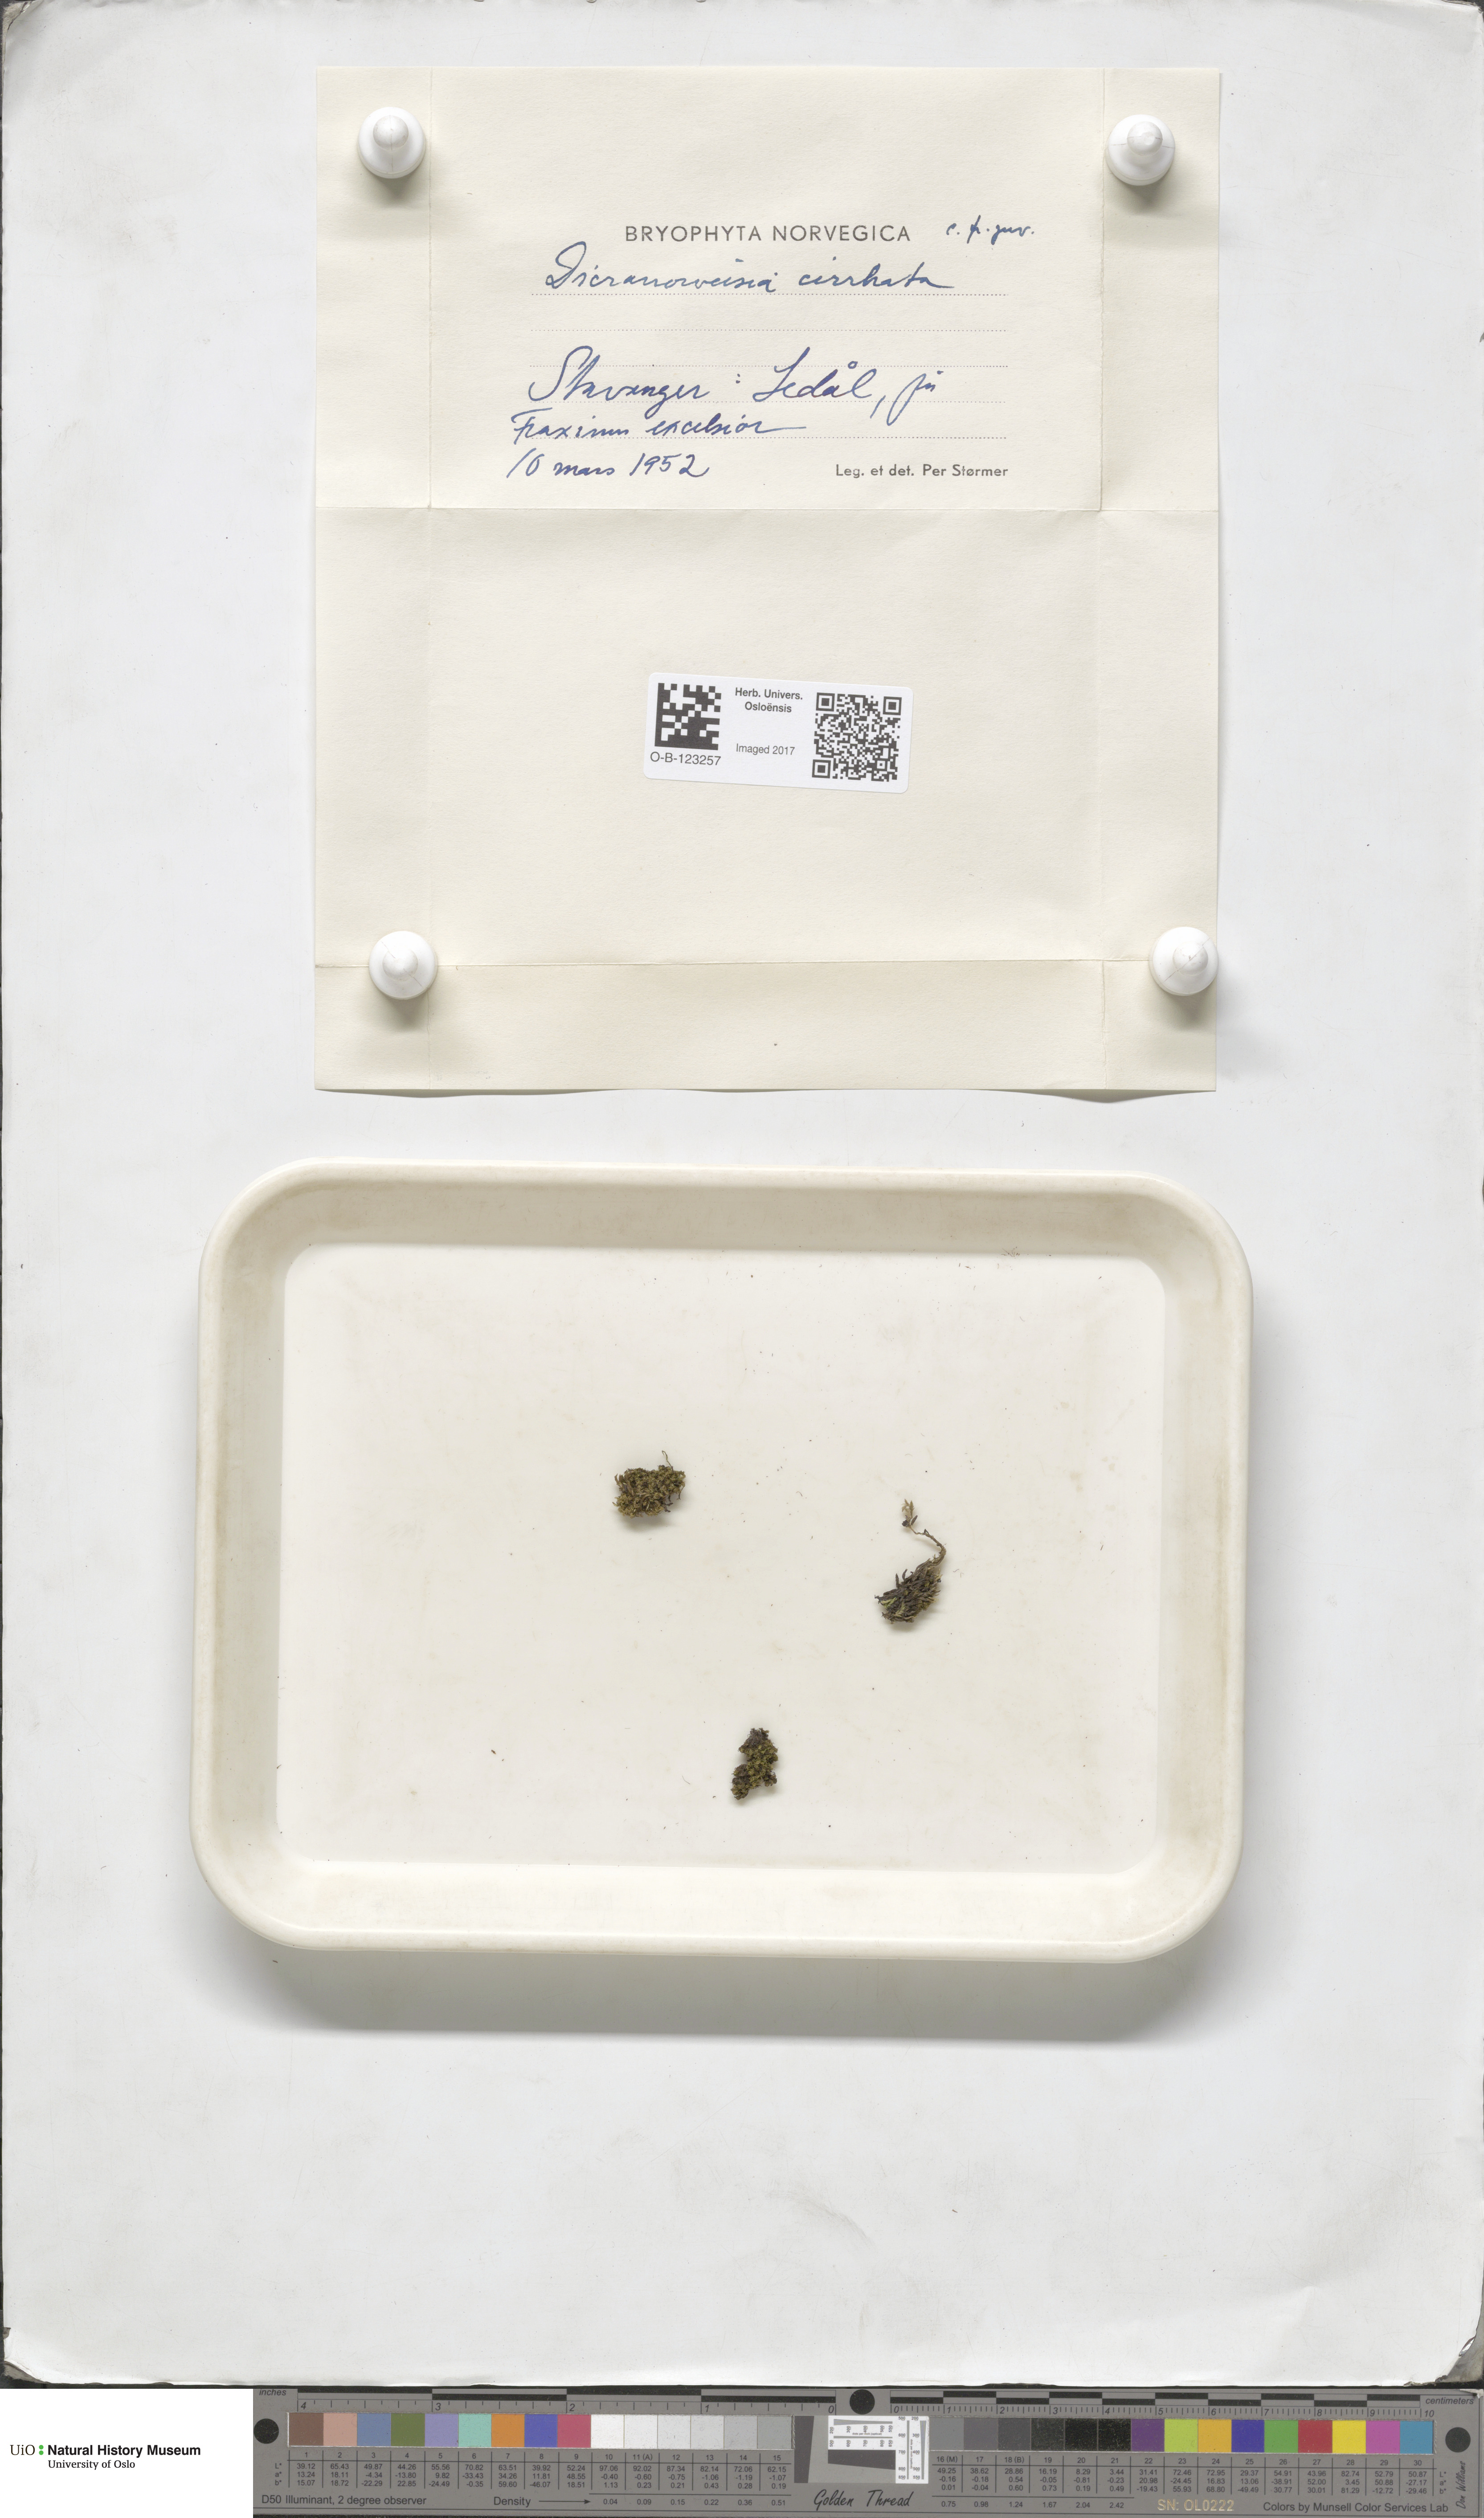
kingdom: Plantae
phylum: Bryophyta
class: Bryopsida
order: Dicranales
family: Rhabdoweisiaceae
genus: Dicranoweisia
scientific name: Dicranoweisia cirrata
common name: Common pincushion
